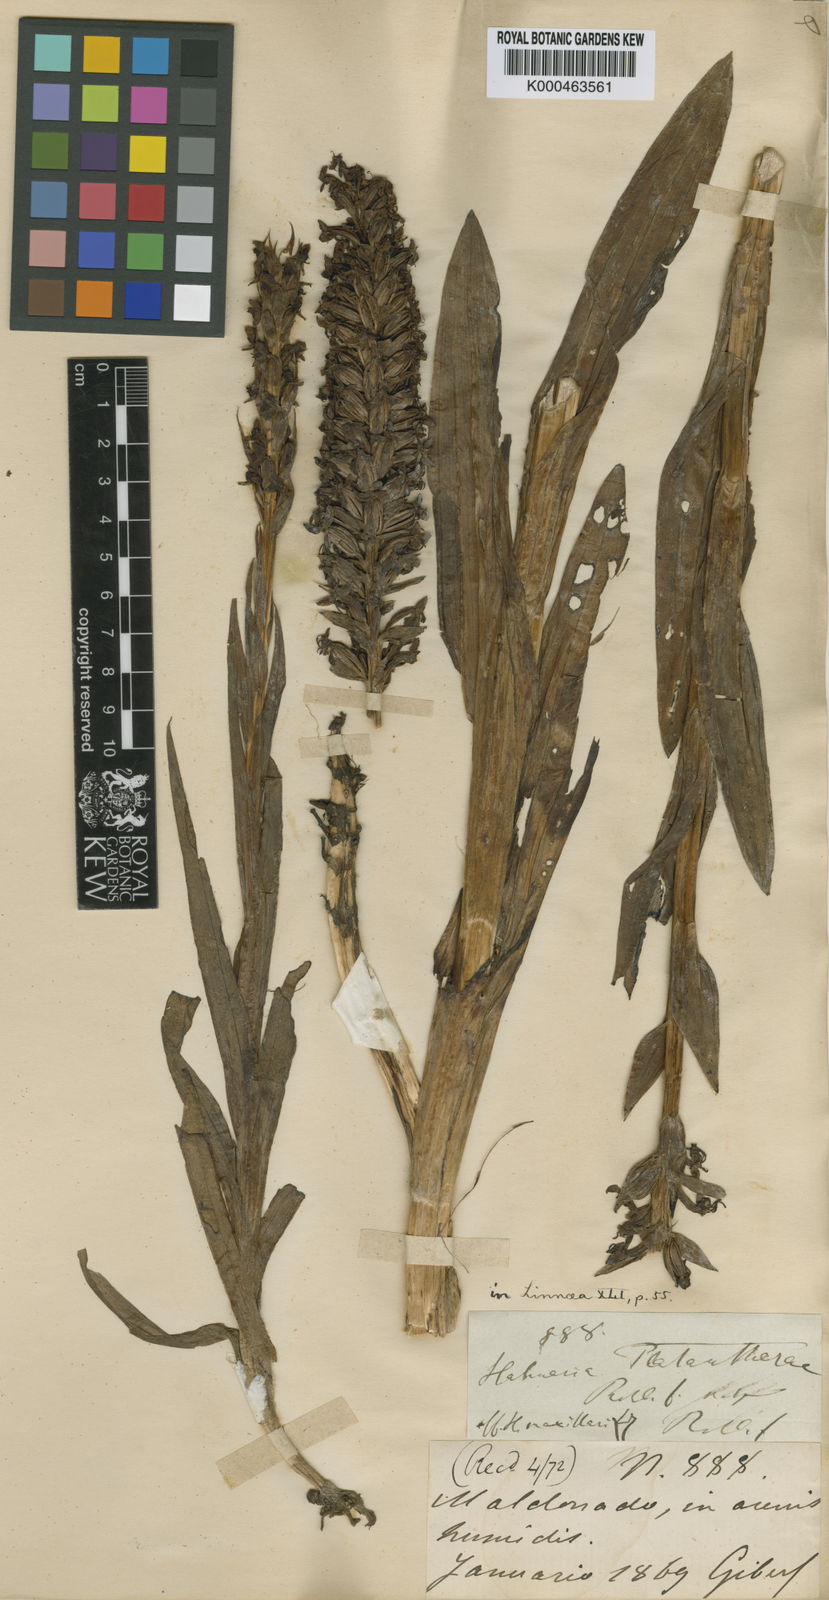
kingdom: Plantae
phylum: Tracheophyta
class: Liliopsida
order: Asparagales
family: Orchidaceae
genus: Habenaria
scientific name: Habenaria platanthera
